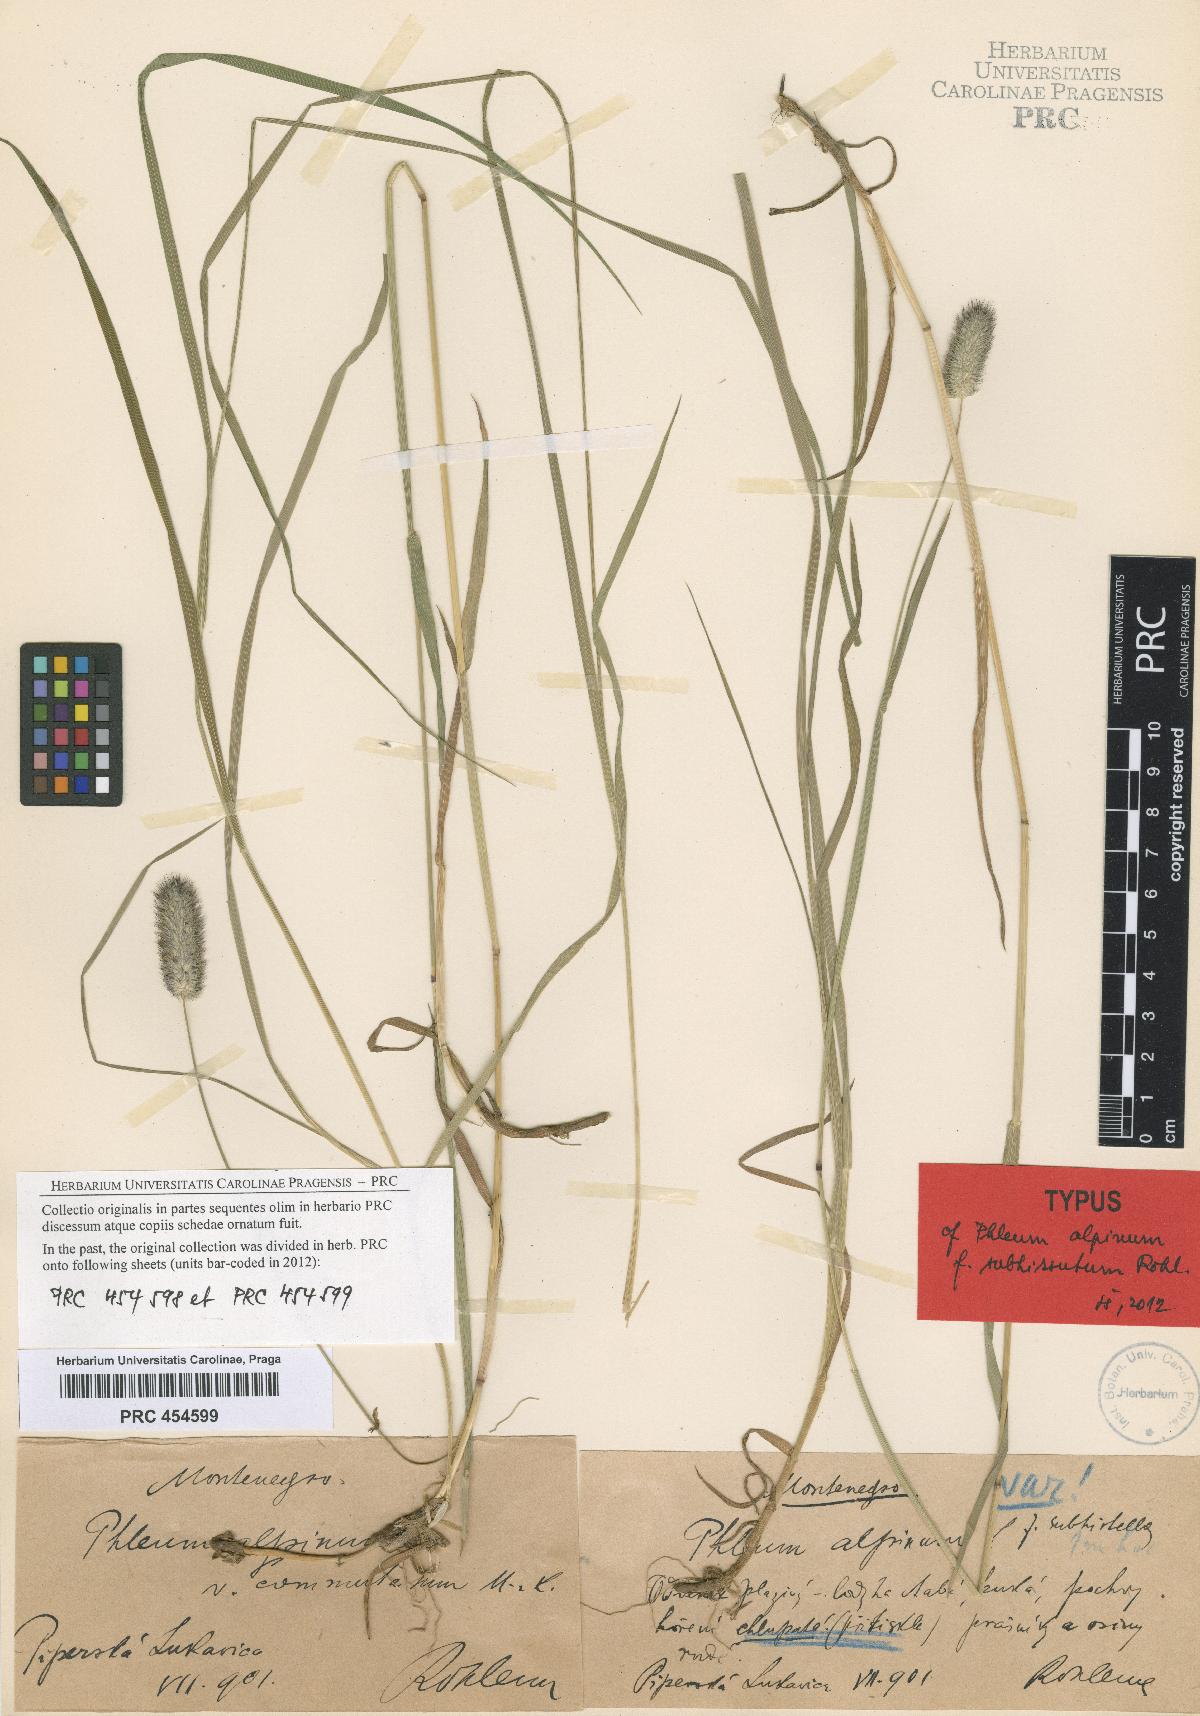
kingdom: Plantae
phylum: Tracheophyta
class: Liliopsida
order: Poales
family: Poaceae
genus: Phleum
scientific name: Phleum alpinum
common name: Alpine cat's-tail
